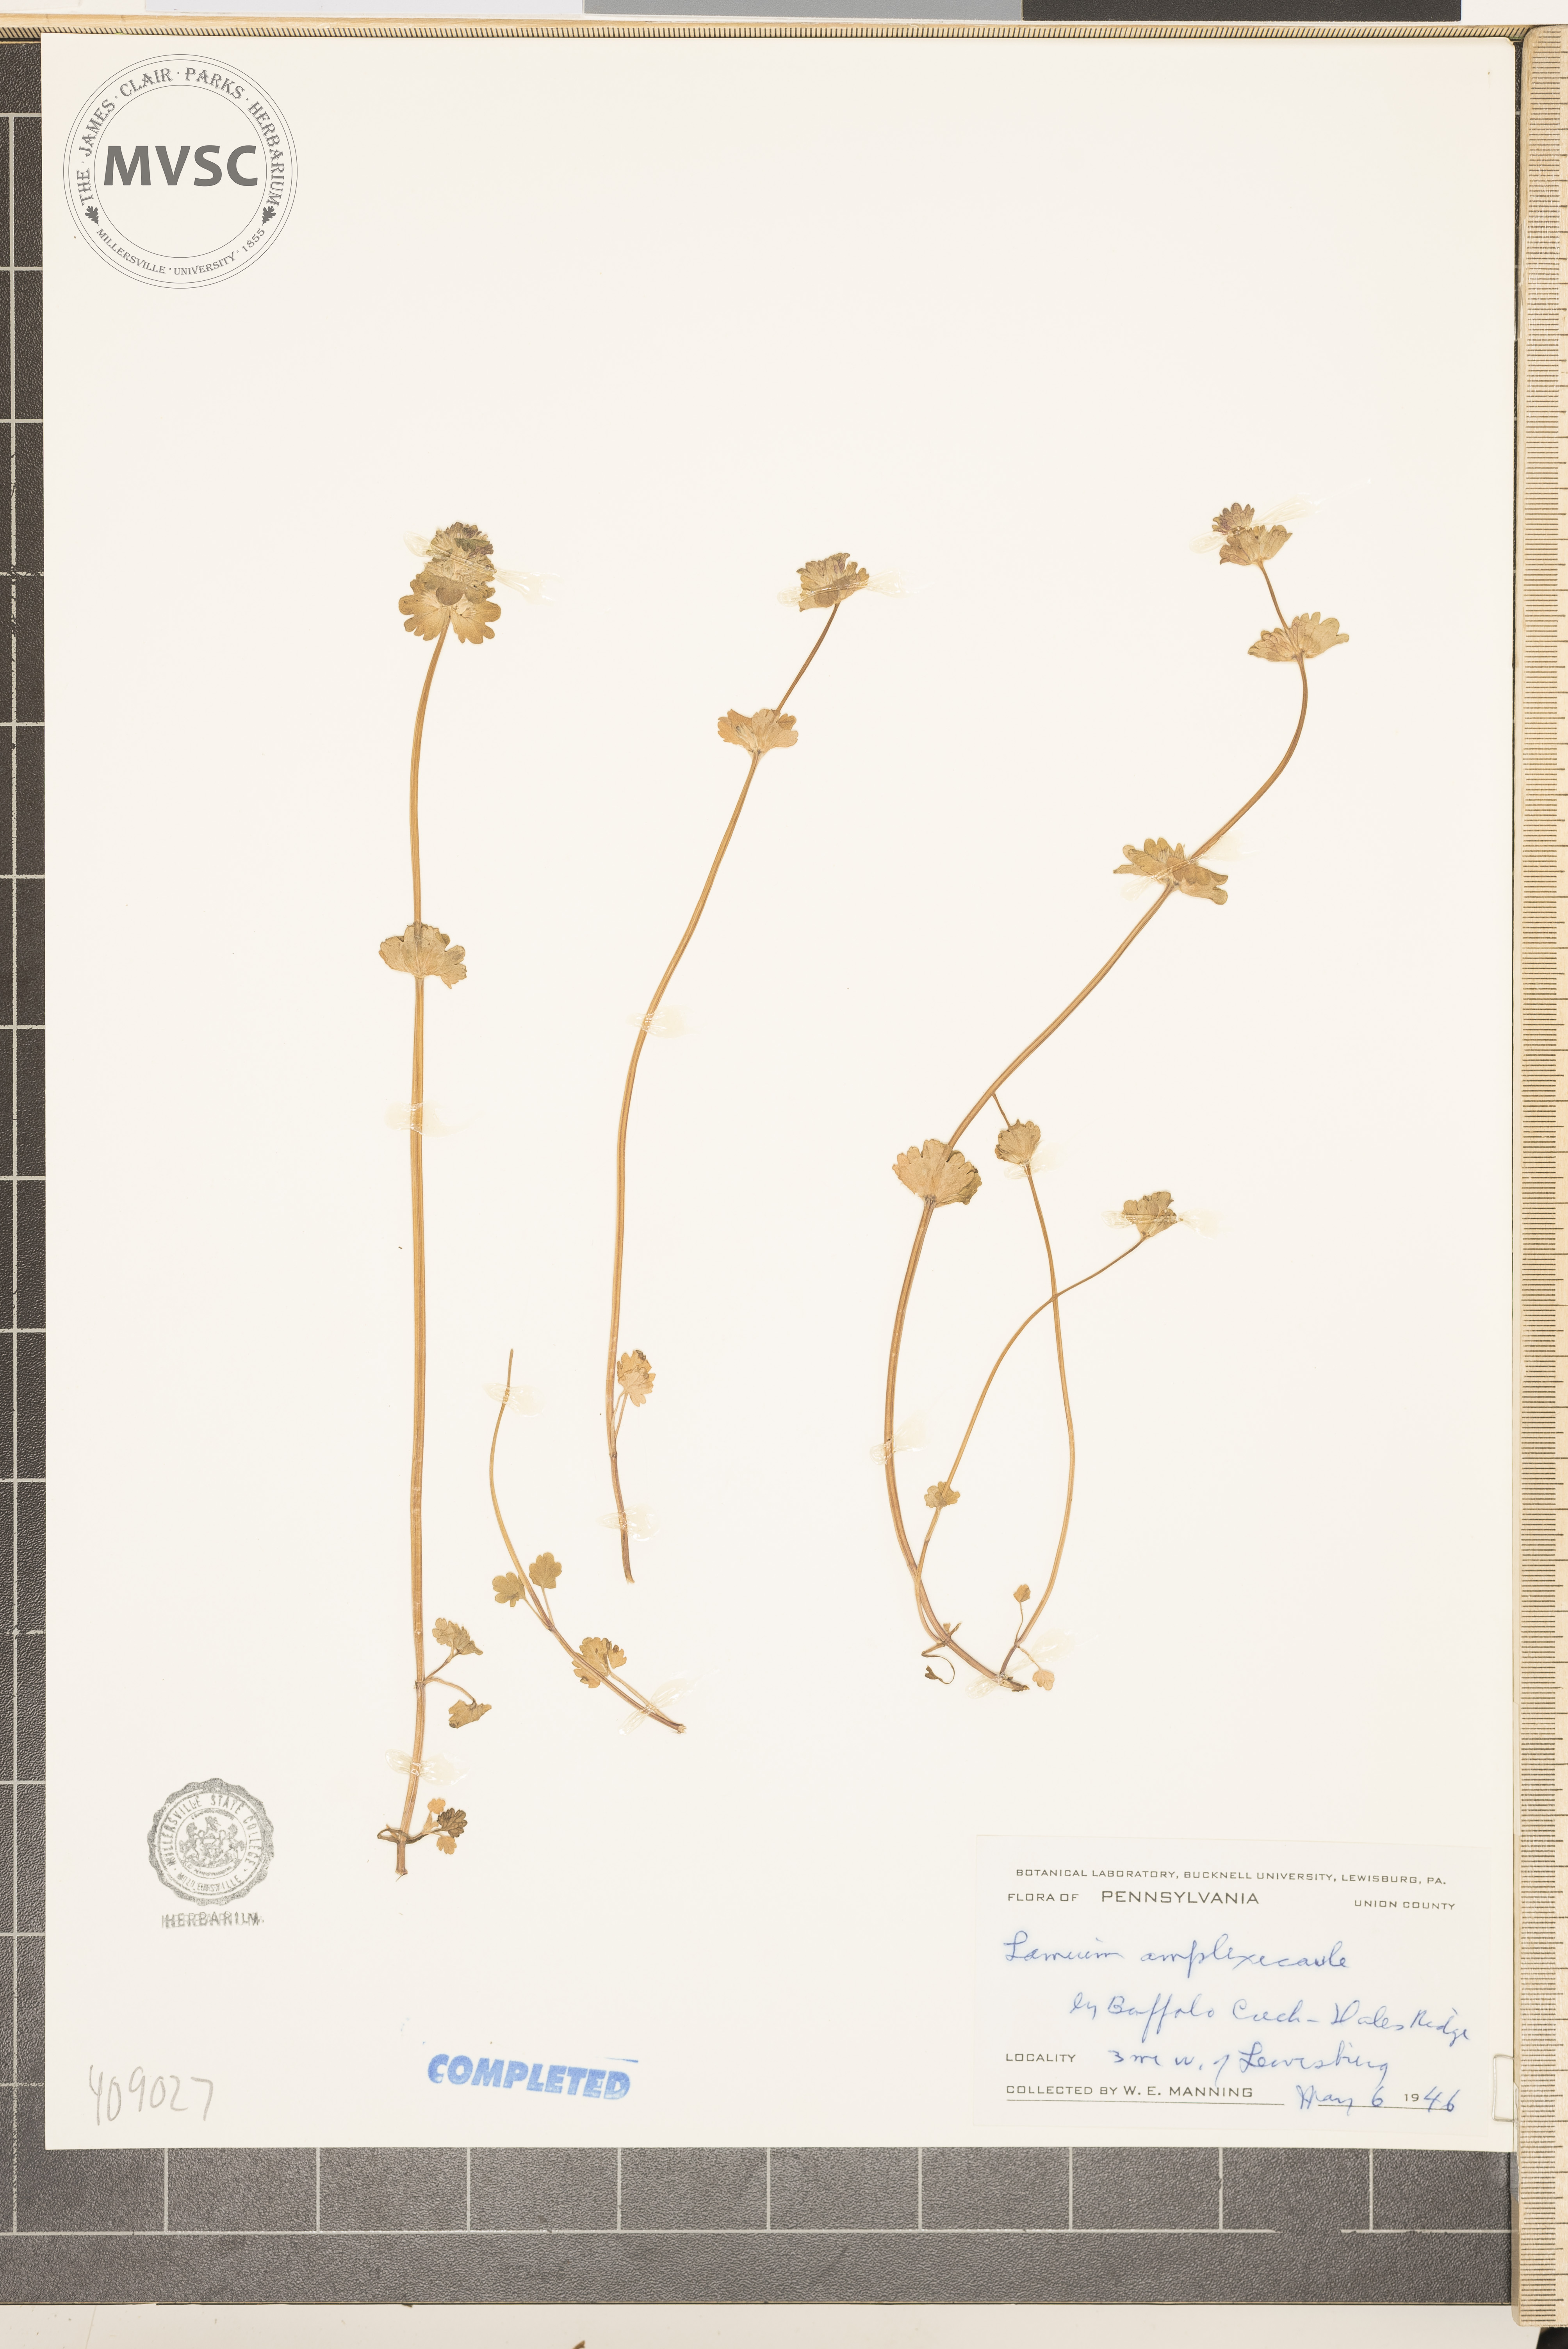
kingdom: Plantae
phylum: Tracheophyta
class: Magnoliopsida
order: Lamiales
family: Lamiaceae
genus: Lamium
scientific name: Lamium amplexicaule
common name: henbit
